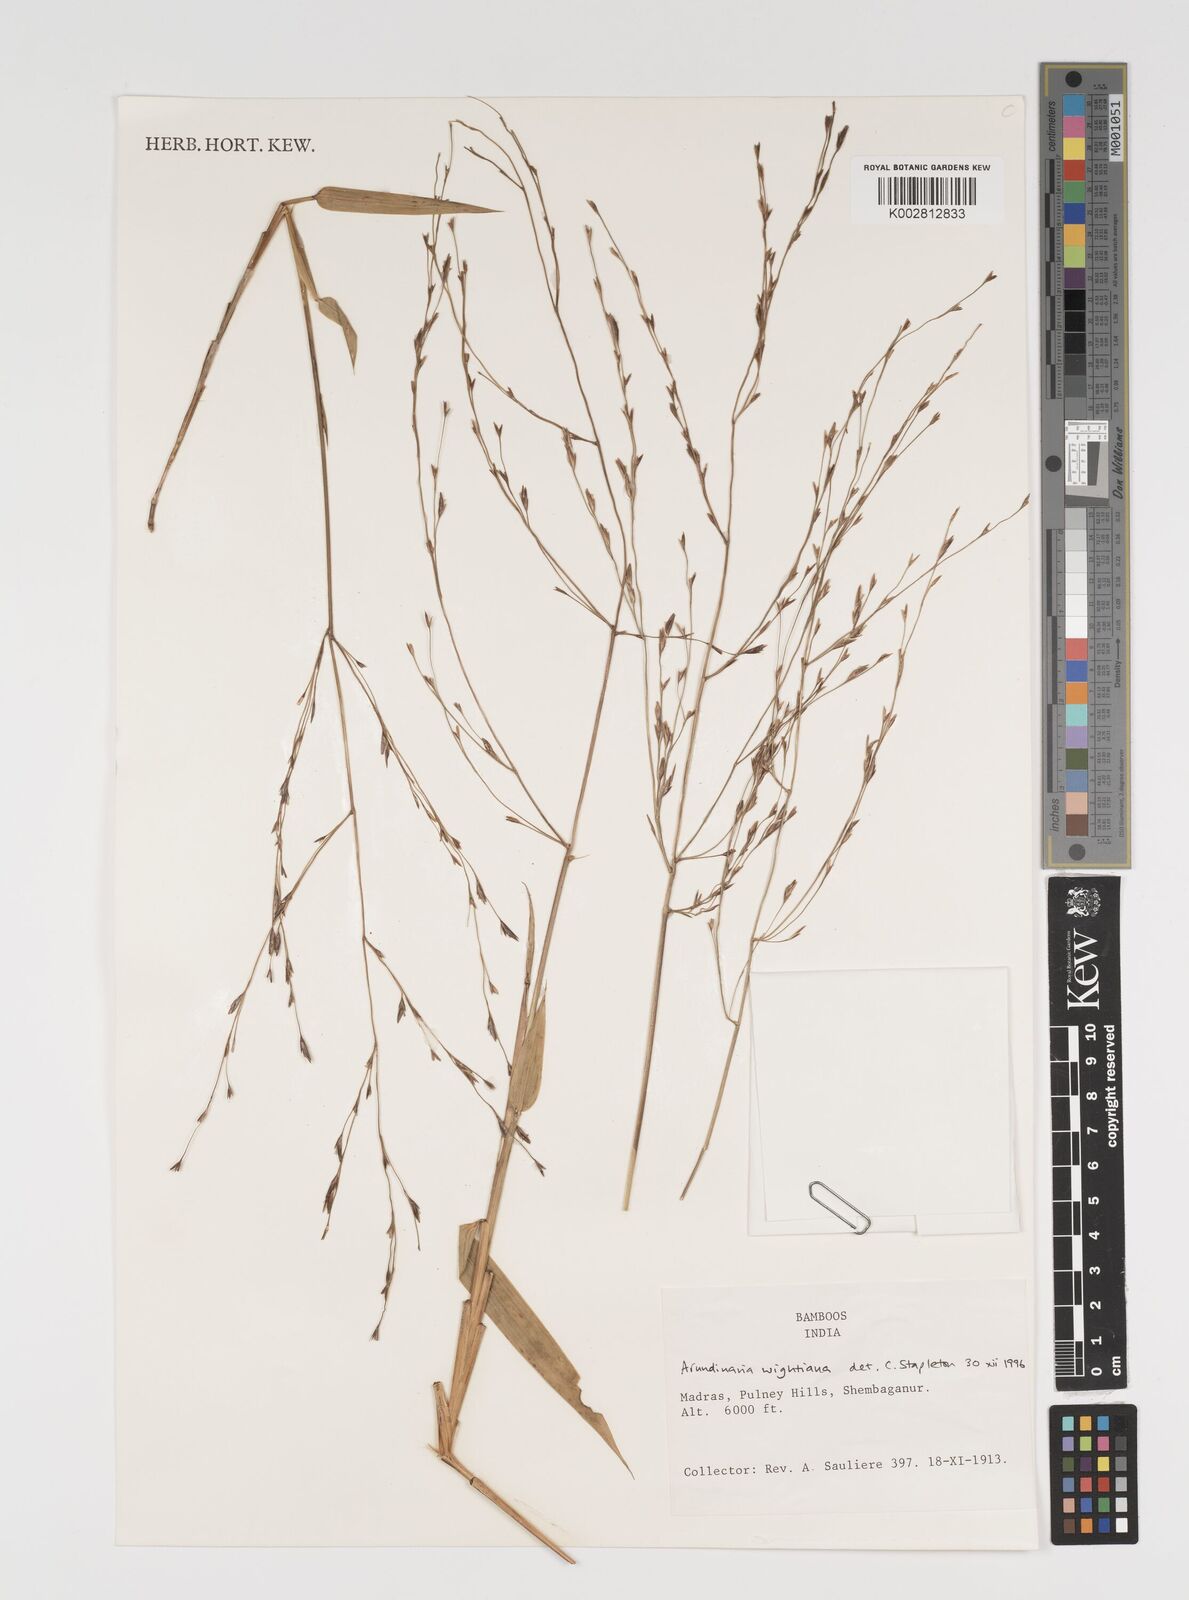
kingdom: Plantae
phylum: Tracheophyta
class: Liliopsida
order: Poales
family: Poaceae
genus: Kuruna
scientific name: Kuruna walkeriana
